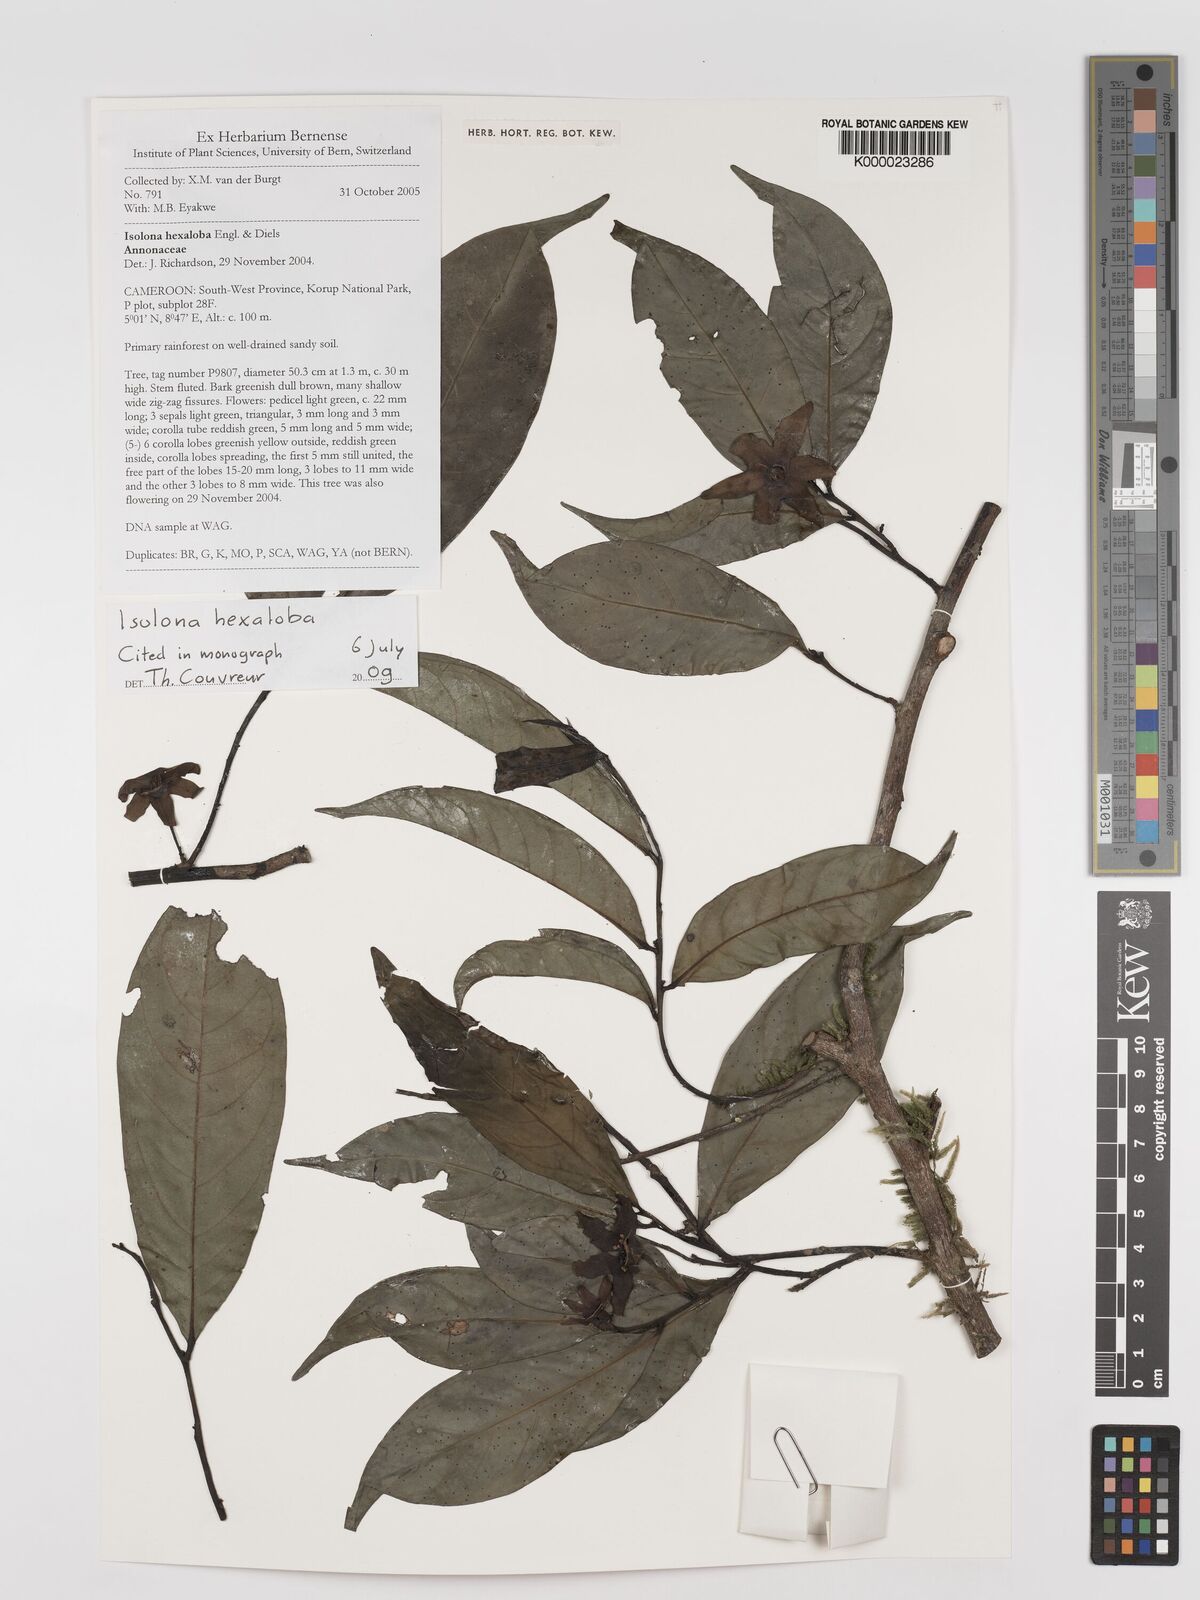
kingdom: Plantae
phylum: Tracheophyta
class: Magnoliopsida
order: Magnoliales
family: Annonaceae
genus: Isolona
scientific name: Isolona hexaloba
